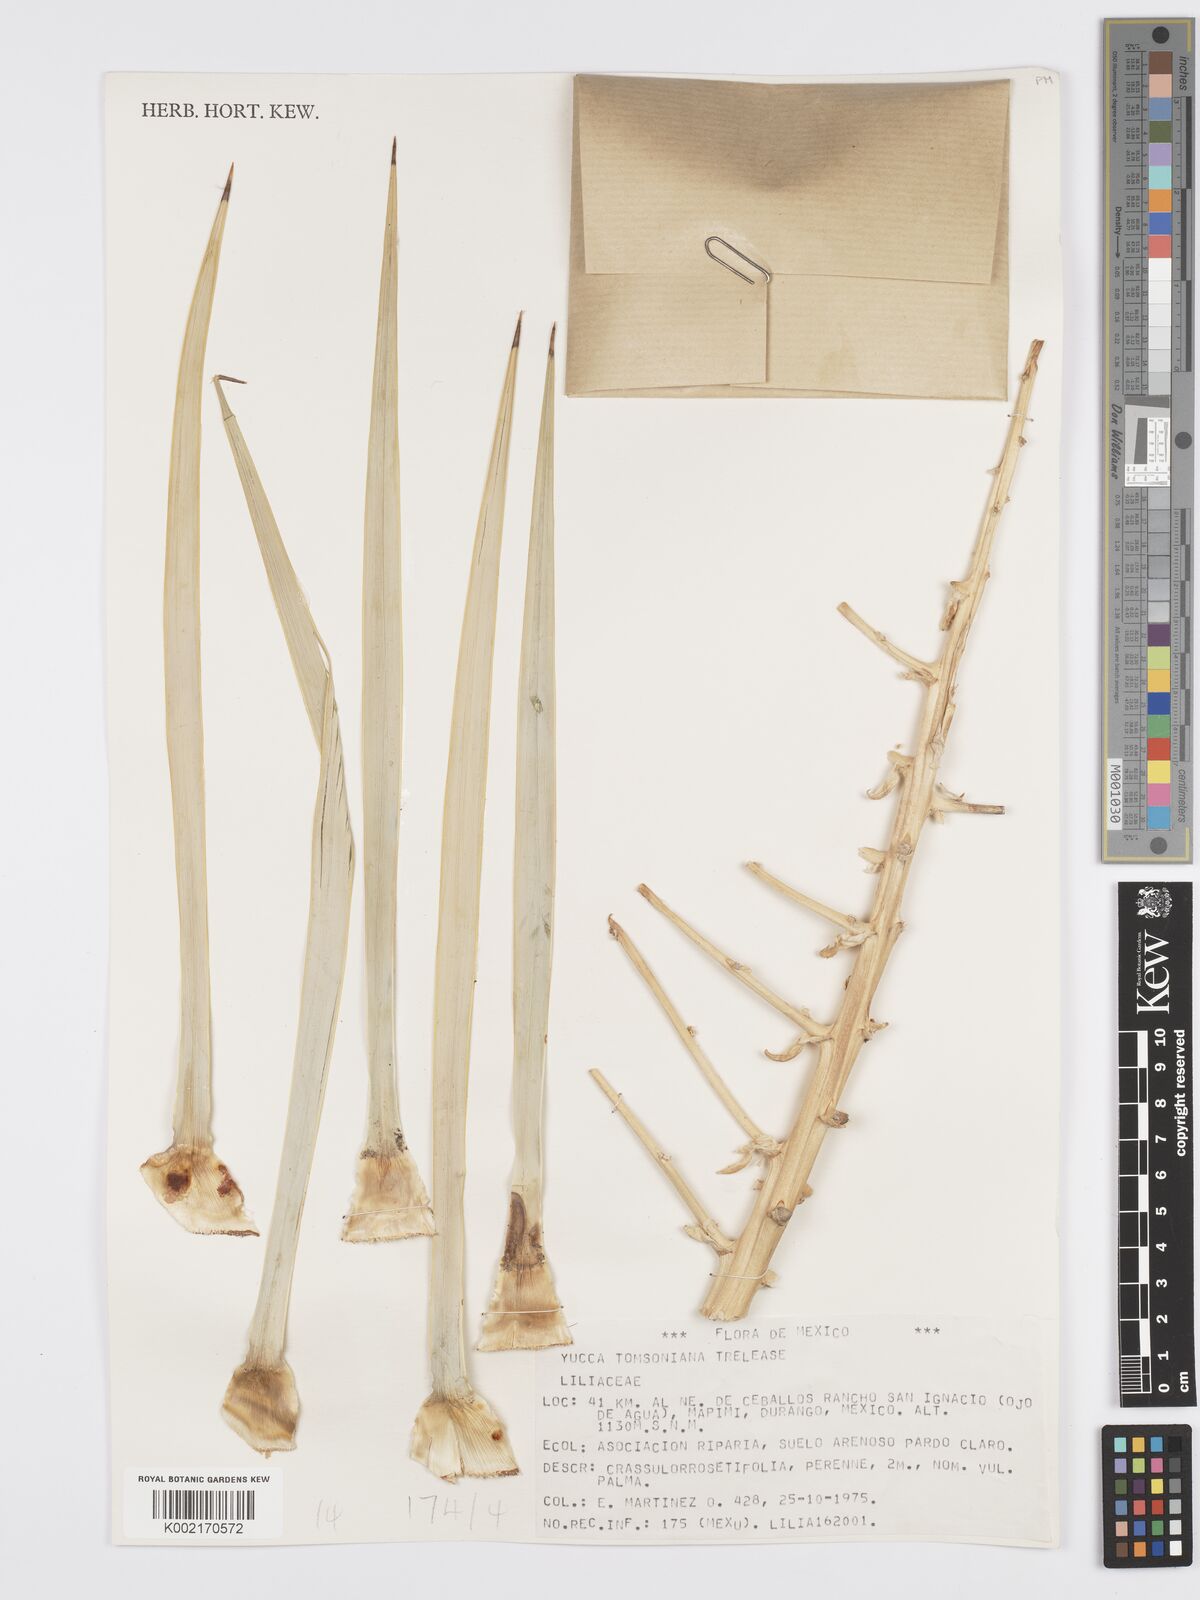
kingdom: Plantae
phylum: Tracheophyta
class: Liliopsida
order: Asparagales
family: Asparagaceae
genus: Yucca
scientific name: Yucca thompsoniana
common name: Trans-pecos yucca
